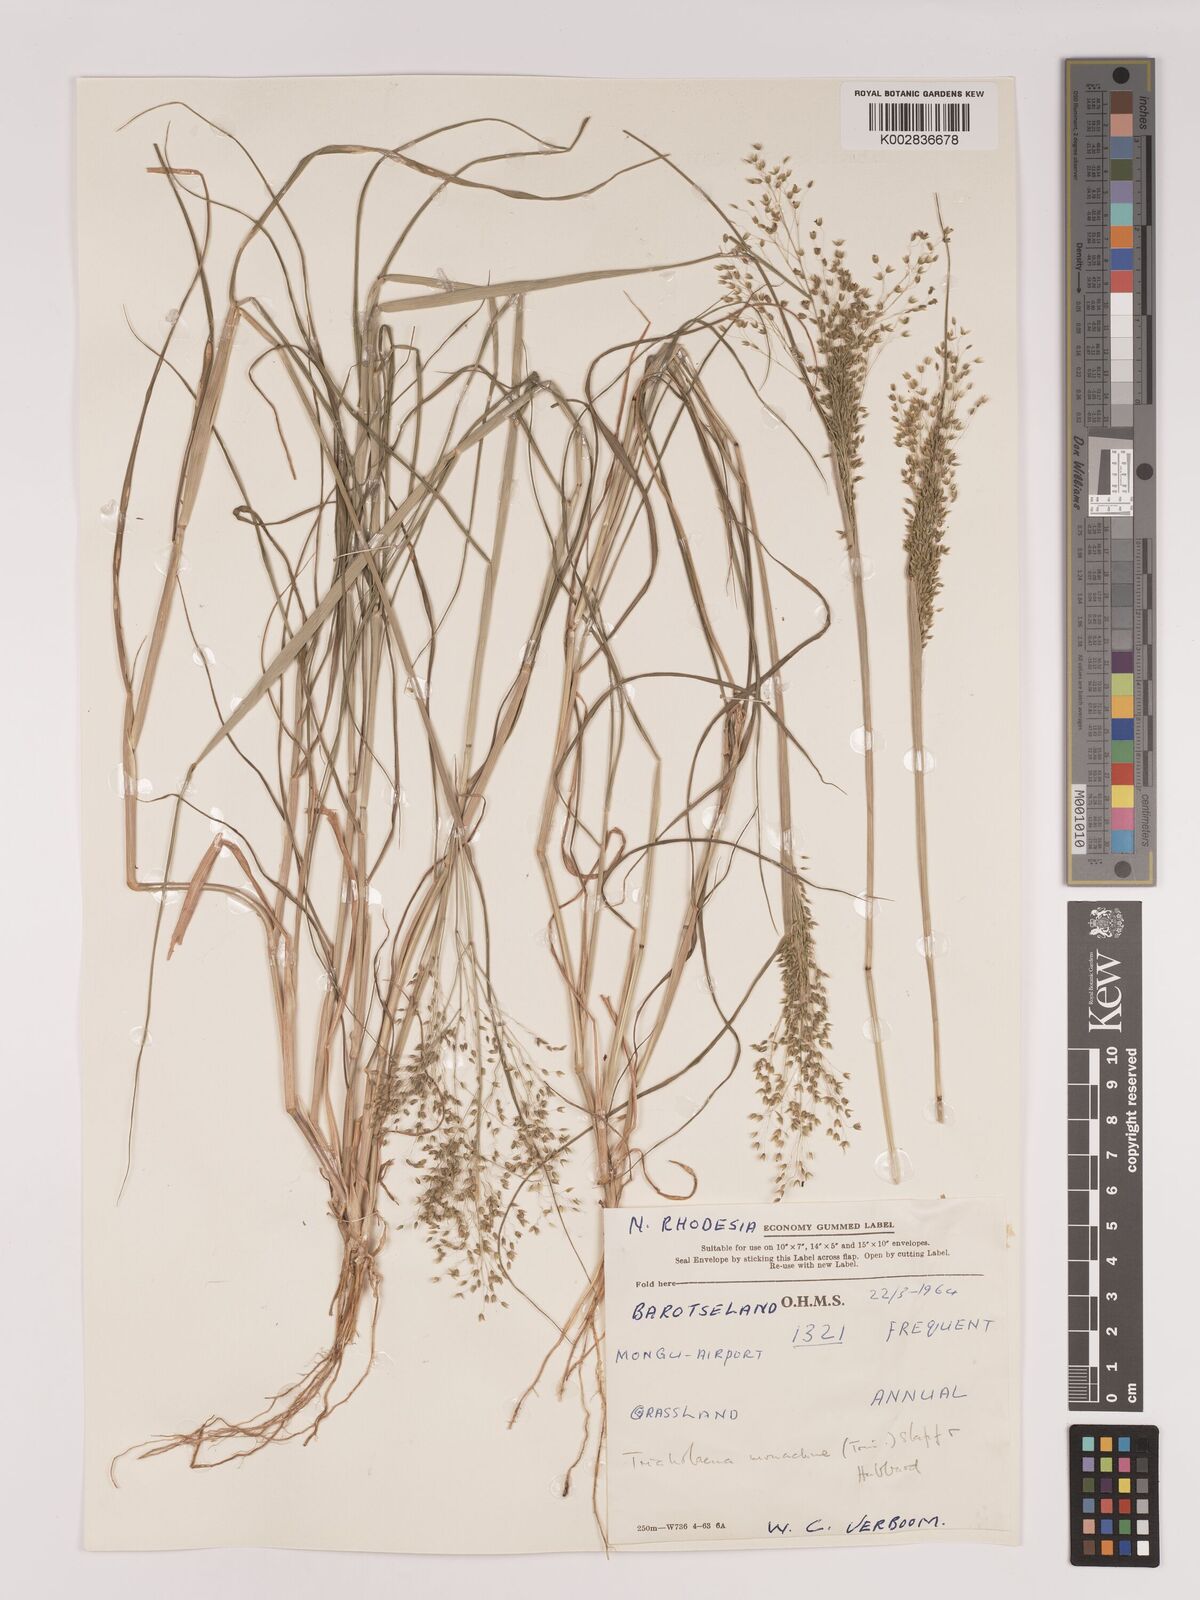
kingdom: Plantae
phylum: Tracheophyta
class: Liliopsida
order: Poales
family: Poaceae
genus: Tricholaena
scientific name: Tricholaena monachne
